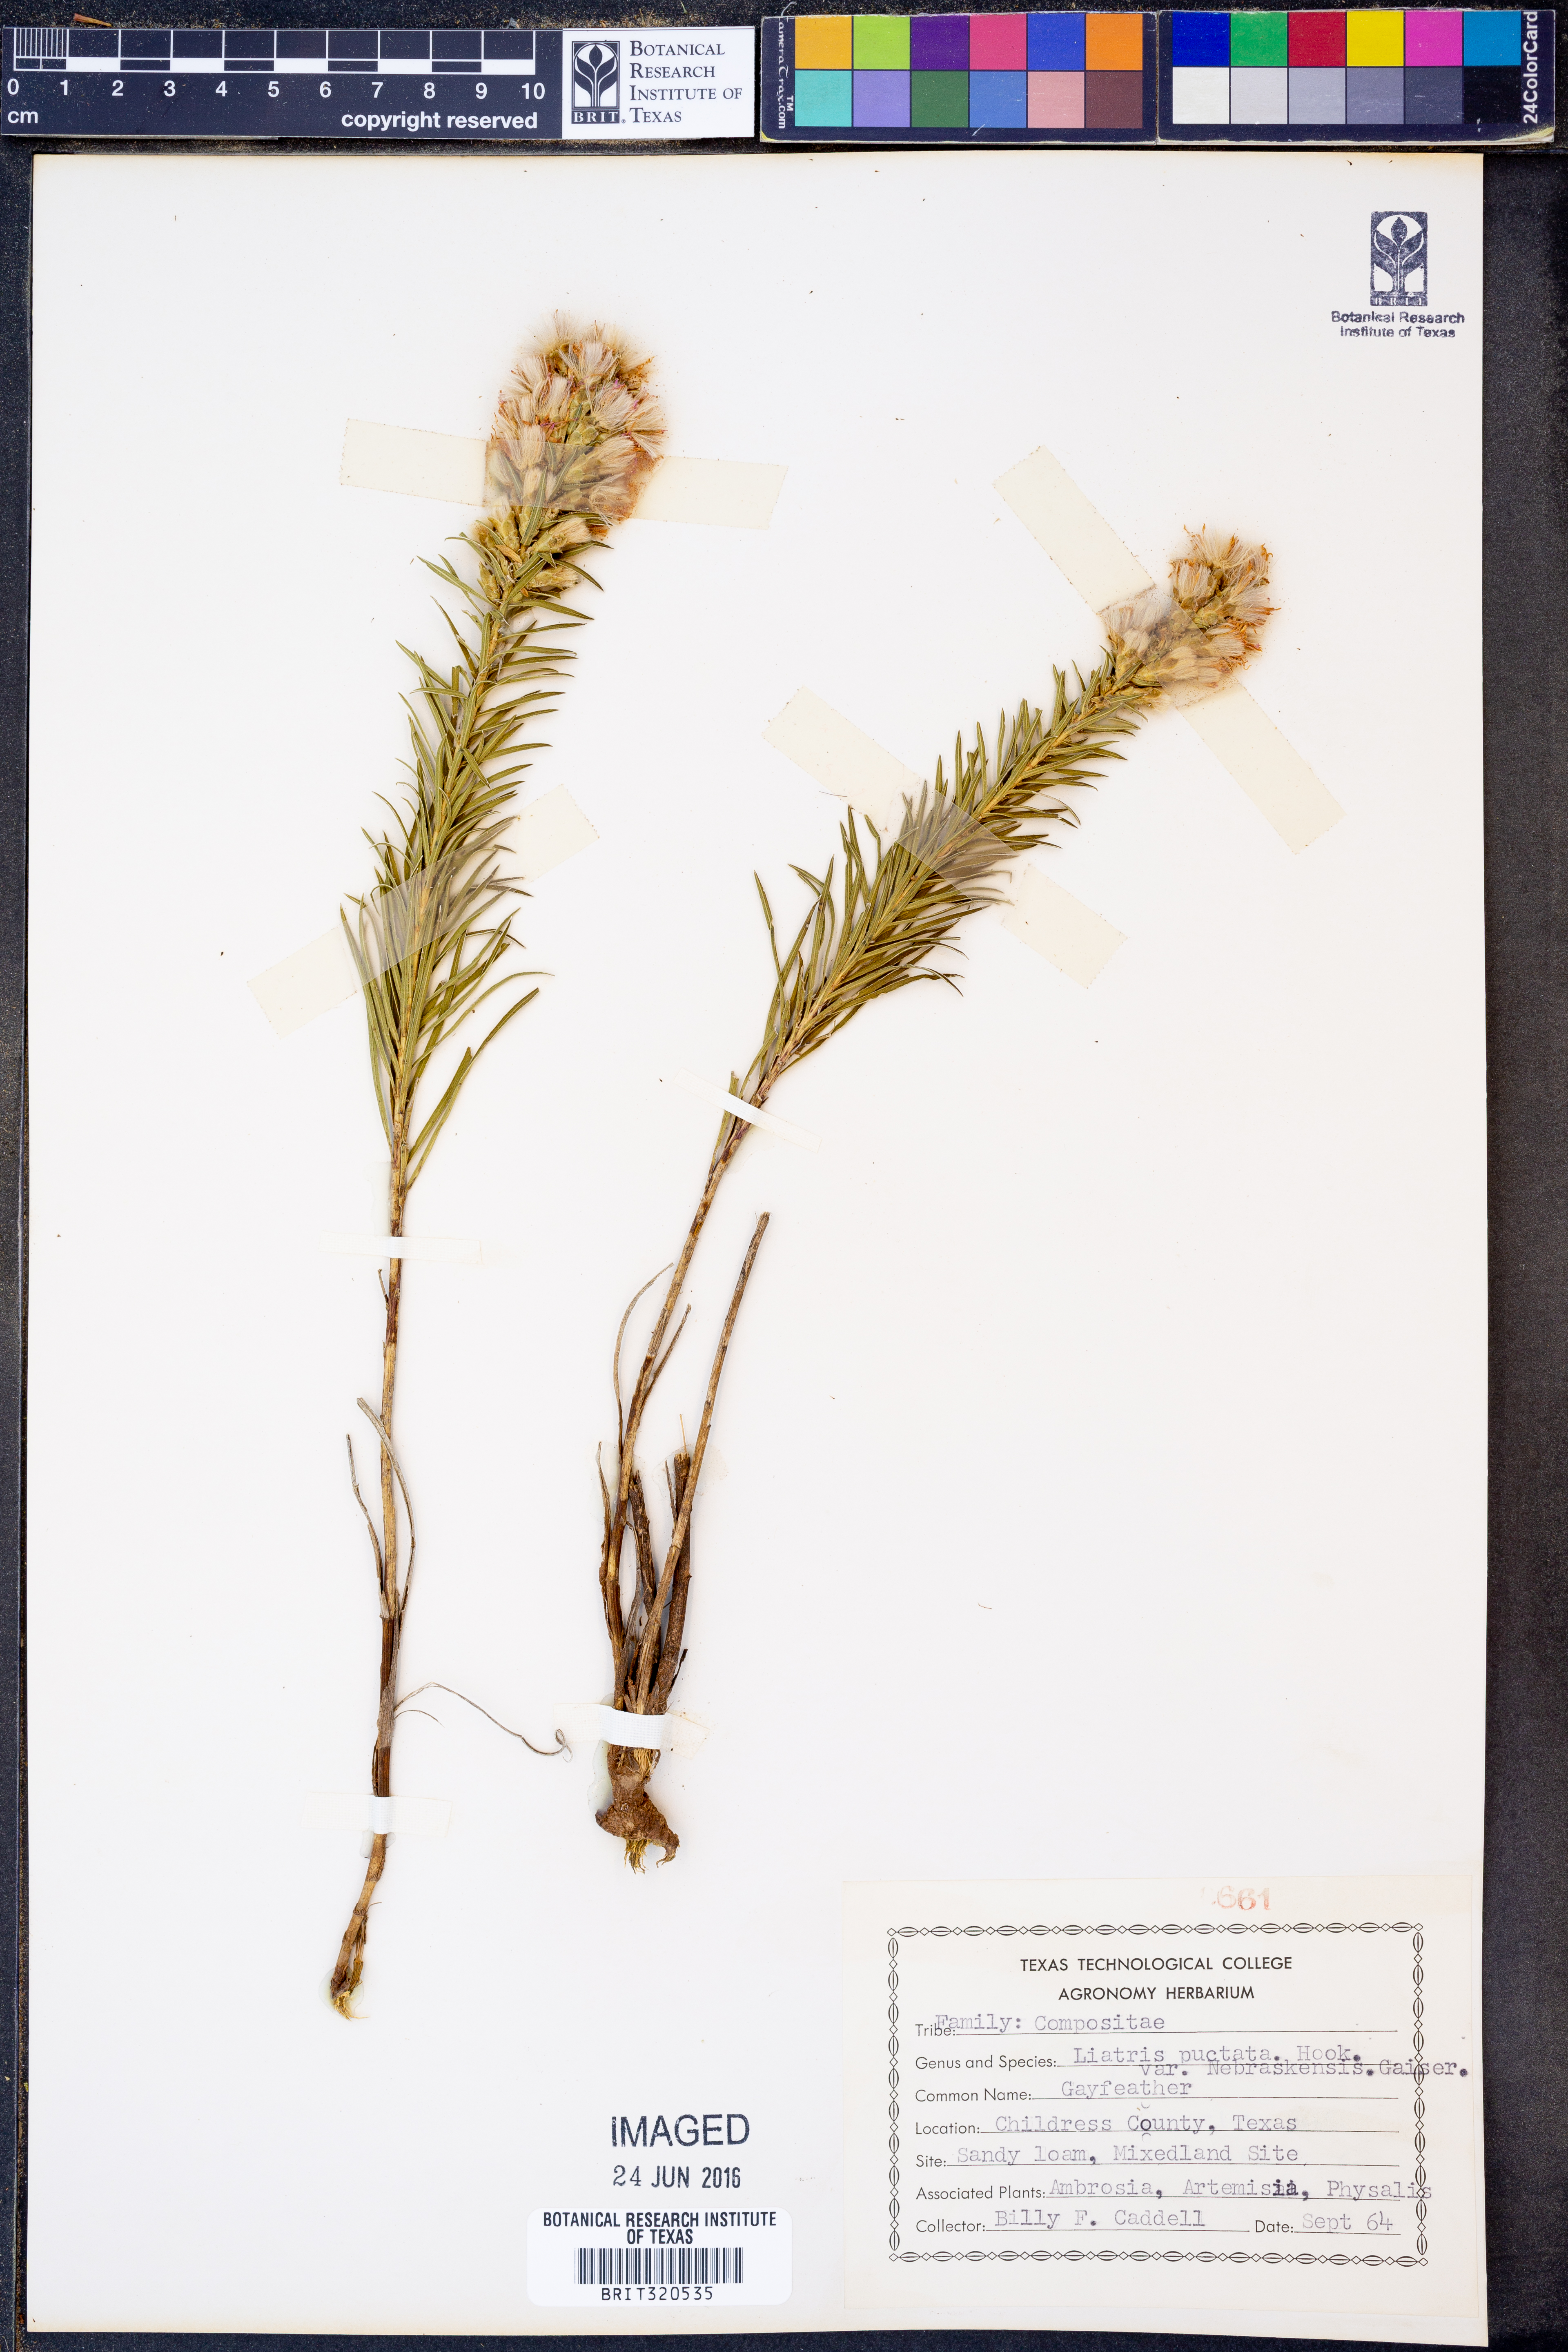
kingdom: Plantae
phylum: Tracheophyta
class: Magnoliopsida
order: Asterales
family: Asteraceae
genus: Liatris
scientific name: Liatris punctata
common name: Dotted gayfeather
